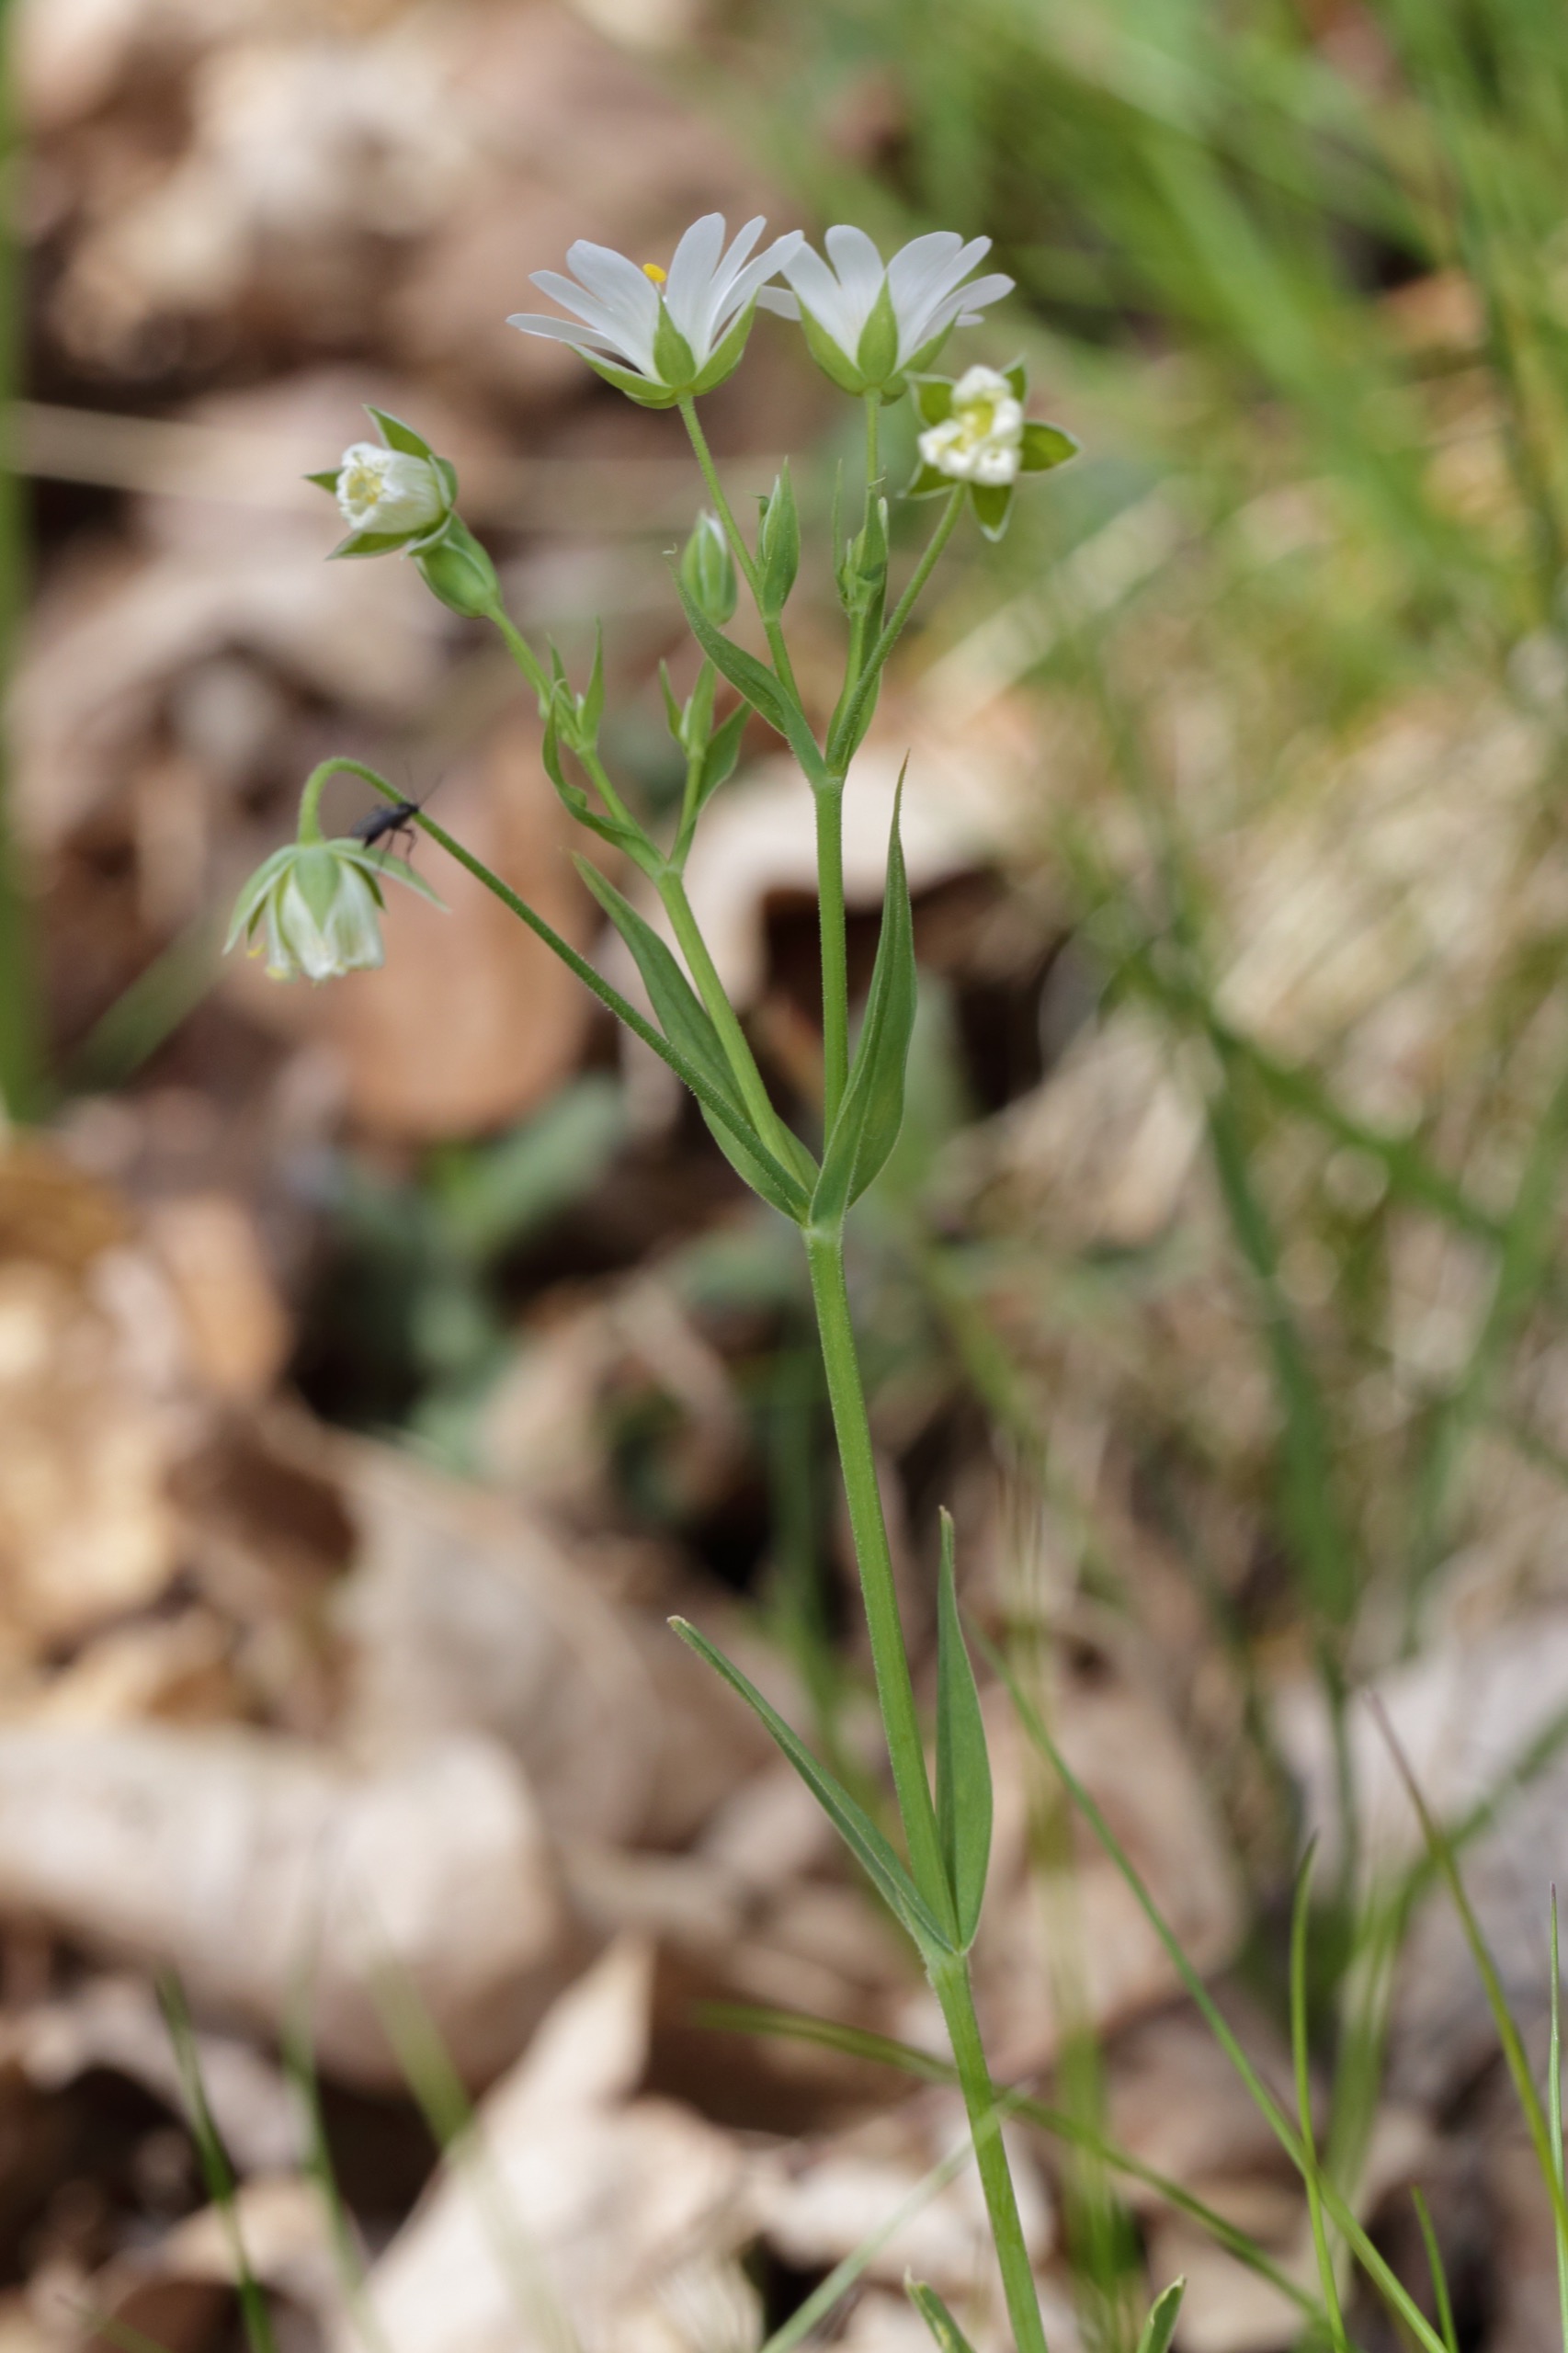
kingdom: Plantae
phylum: Tracheophyta
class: Magnoliopsida
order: Caryophyllales
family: Caryophyllaceae
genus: Rabelera
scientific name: Rabelera holostea
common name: Stor fladstjerne
